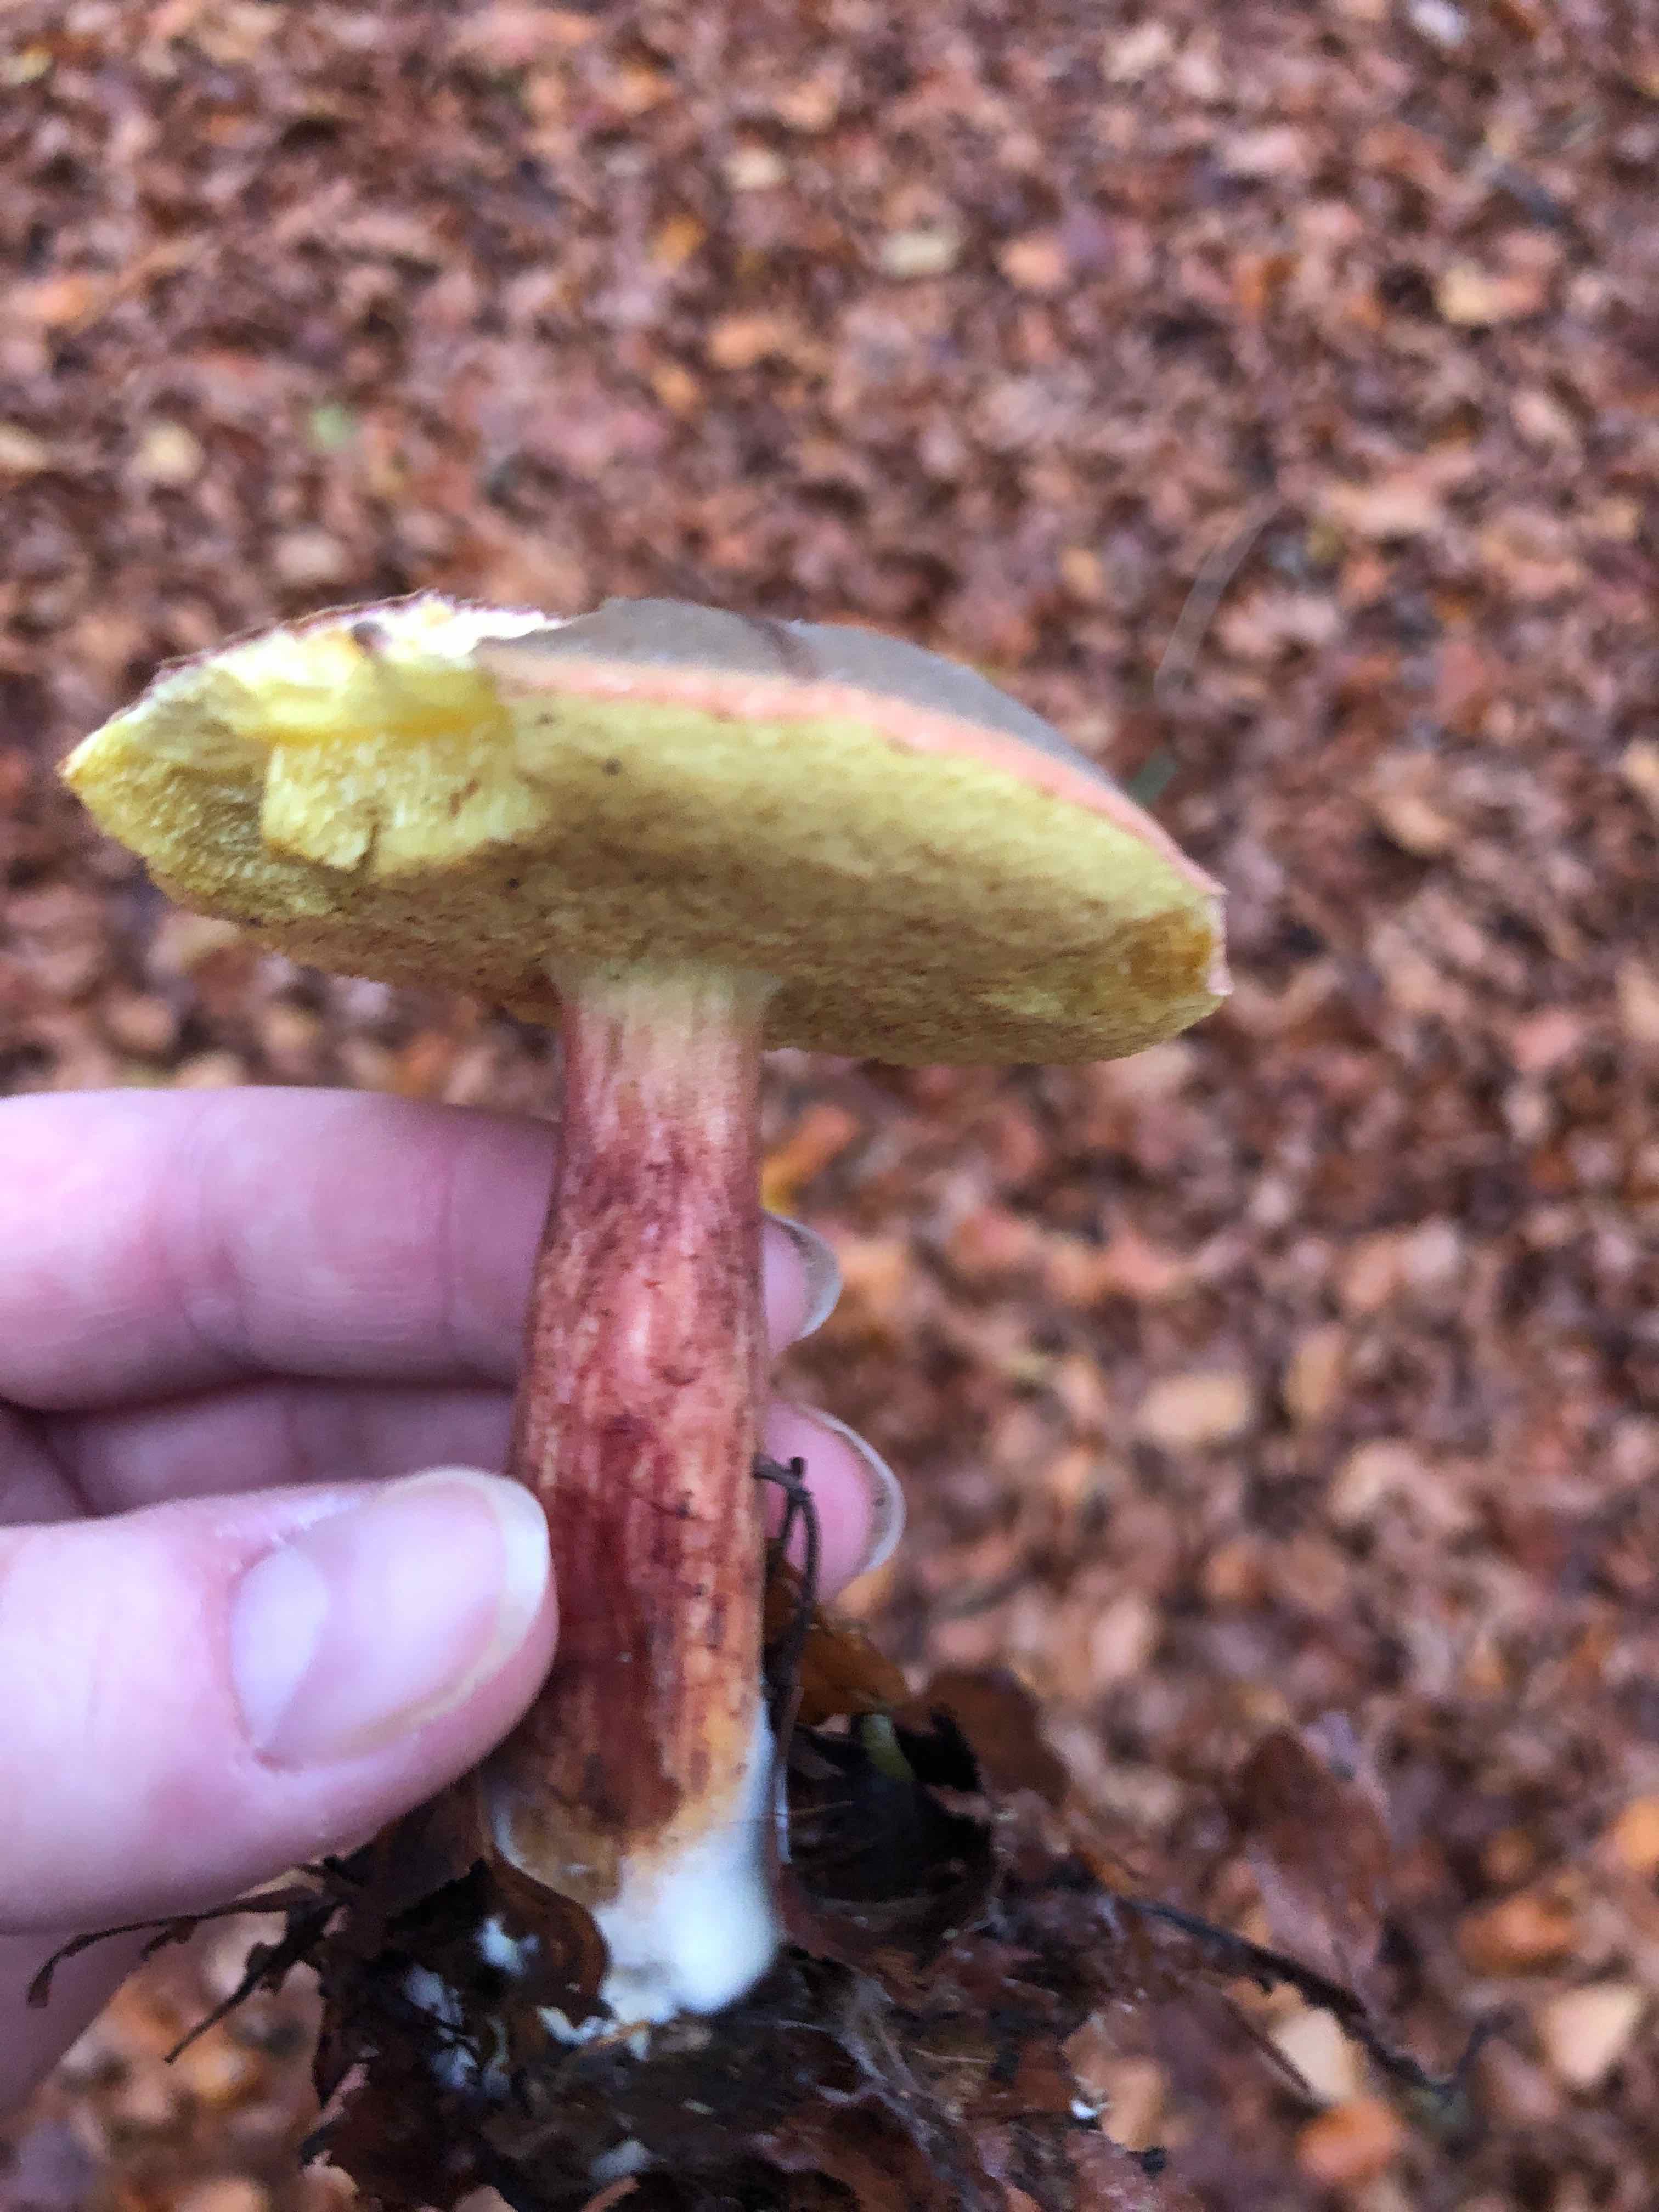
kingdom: Fungi
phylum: Basidiomycota
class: Agaricomycetes
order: Boletales
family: Boletaceae
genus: Xerocomellus
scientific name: Xerocomellus pruinatus
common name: dugget rørhat
